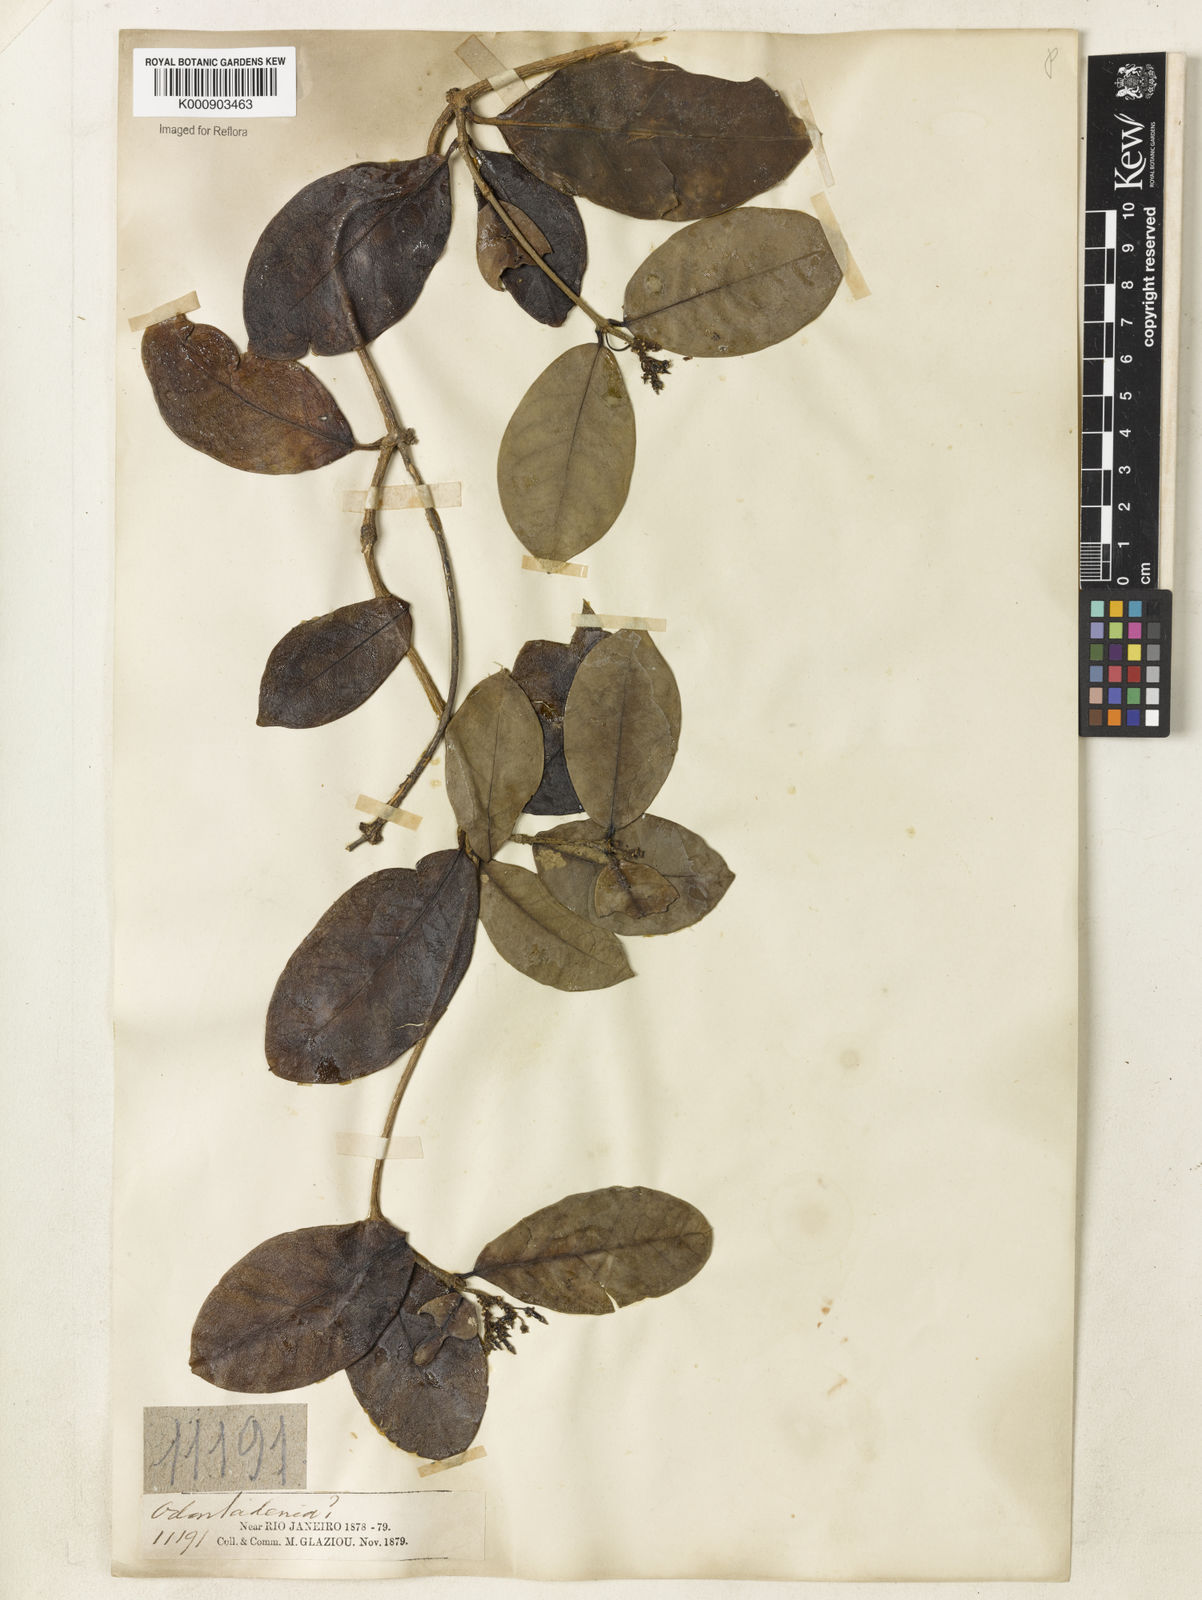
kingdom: Plantae
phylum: Tracheophyta
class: Magnoliopsida
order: Gentianales
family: Apocynaceae
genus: Prestonia
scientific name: Prestonia coalita
